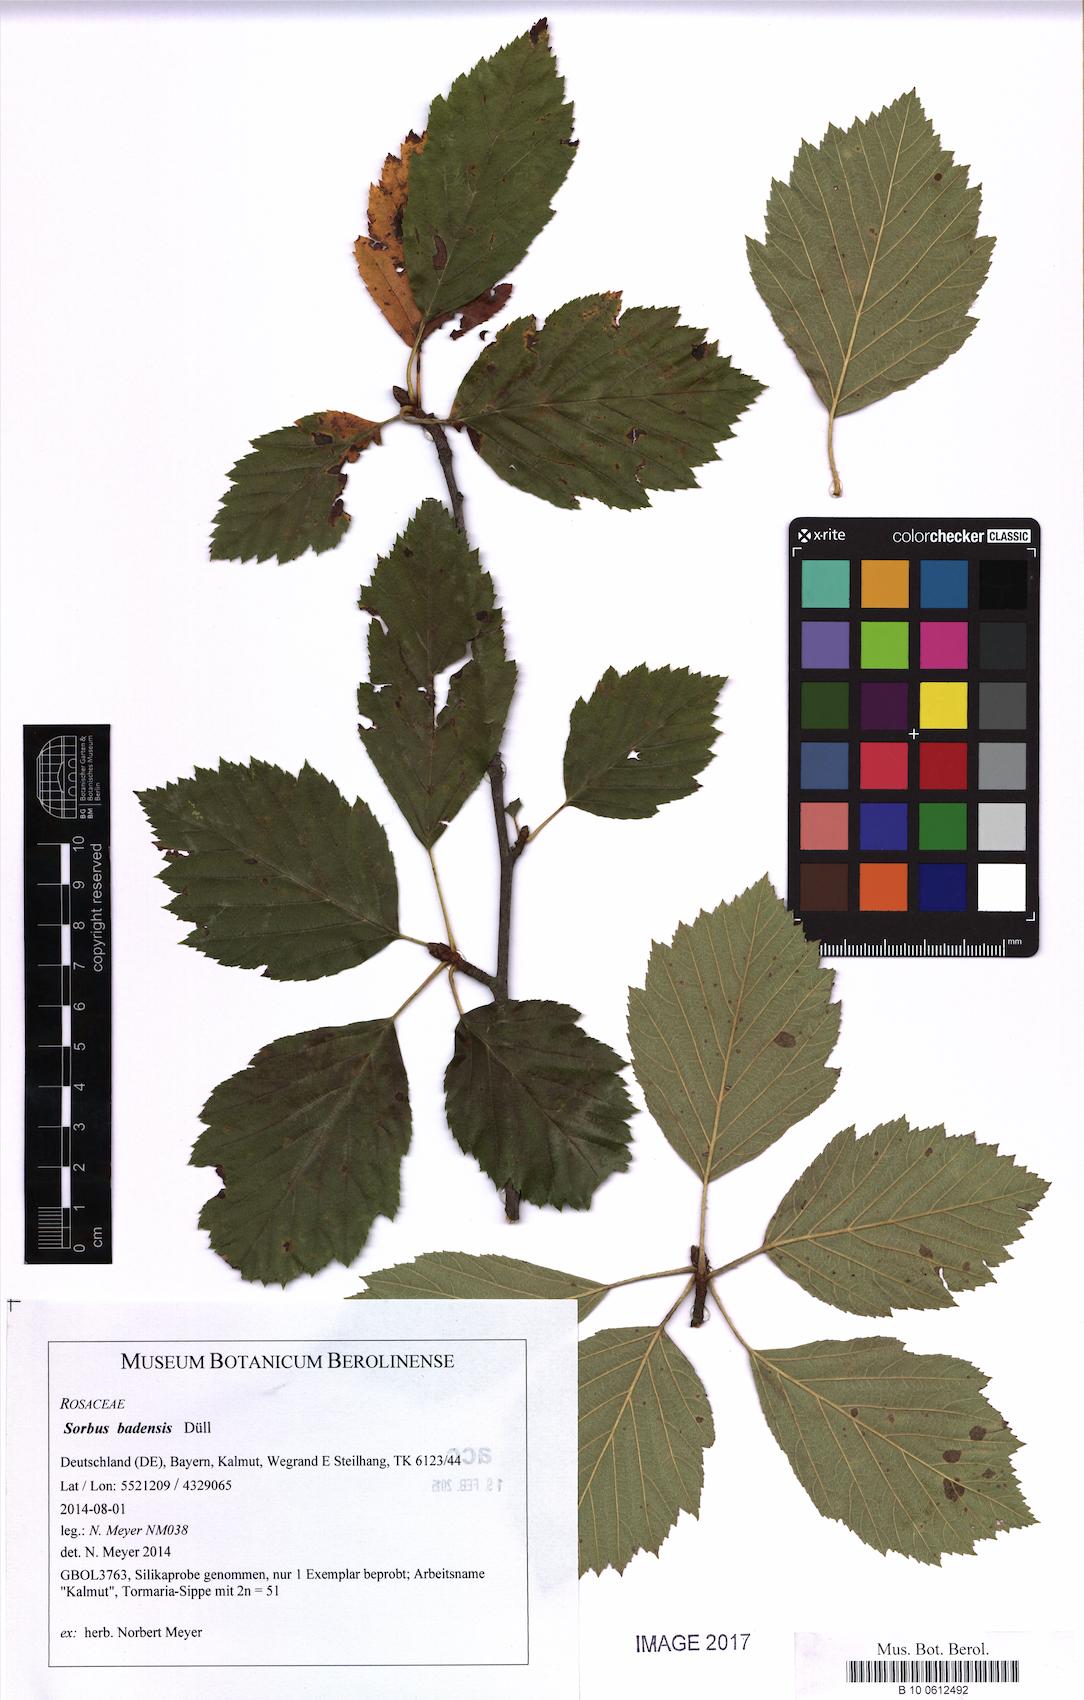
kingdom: Plantae
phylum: Tracheophyta
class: Magnoliopsida
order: Rosales
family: Rosaceae
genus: Karpatiosorbus
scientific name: Karpatiosorbus badensis
